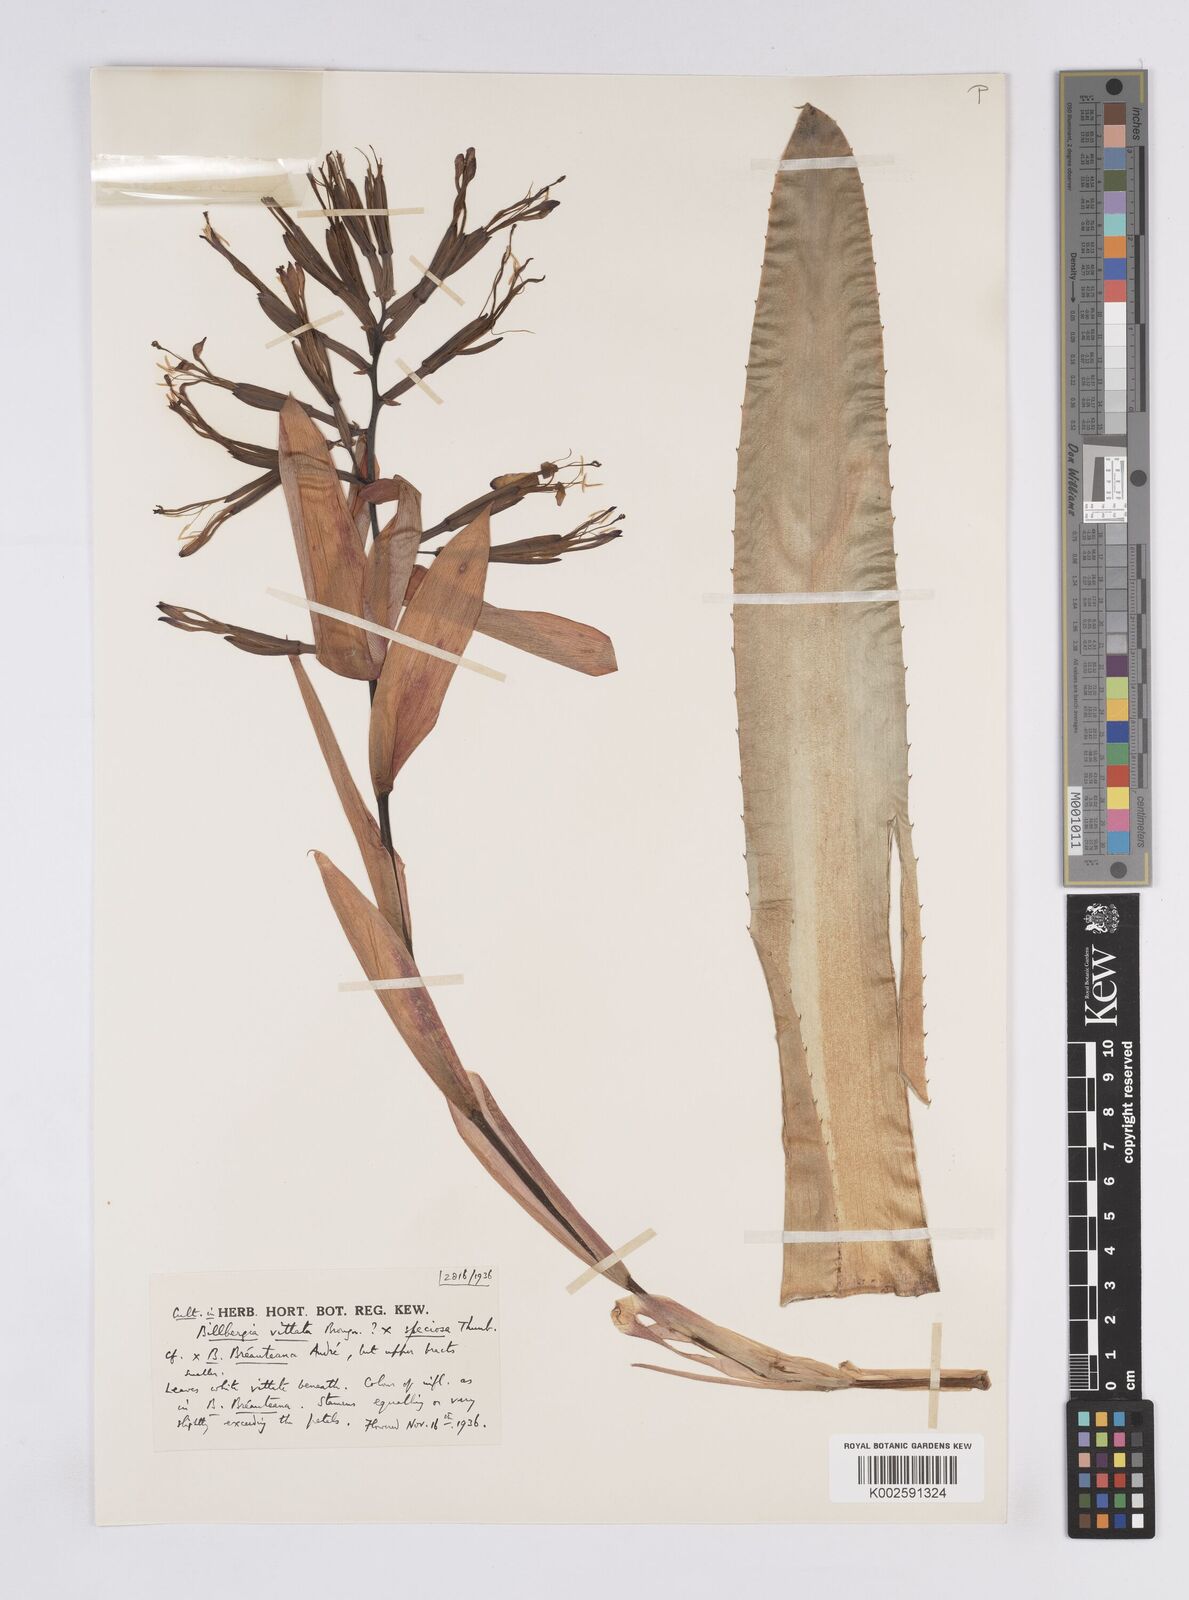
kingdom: Plantae
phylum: Tracheophyta
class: Liliopsida
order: Poales
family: Bromeliaceae
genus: Billbergia
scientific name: Billbergia blireiana
